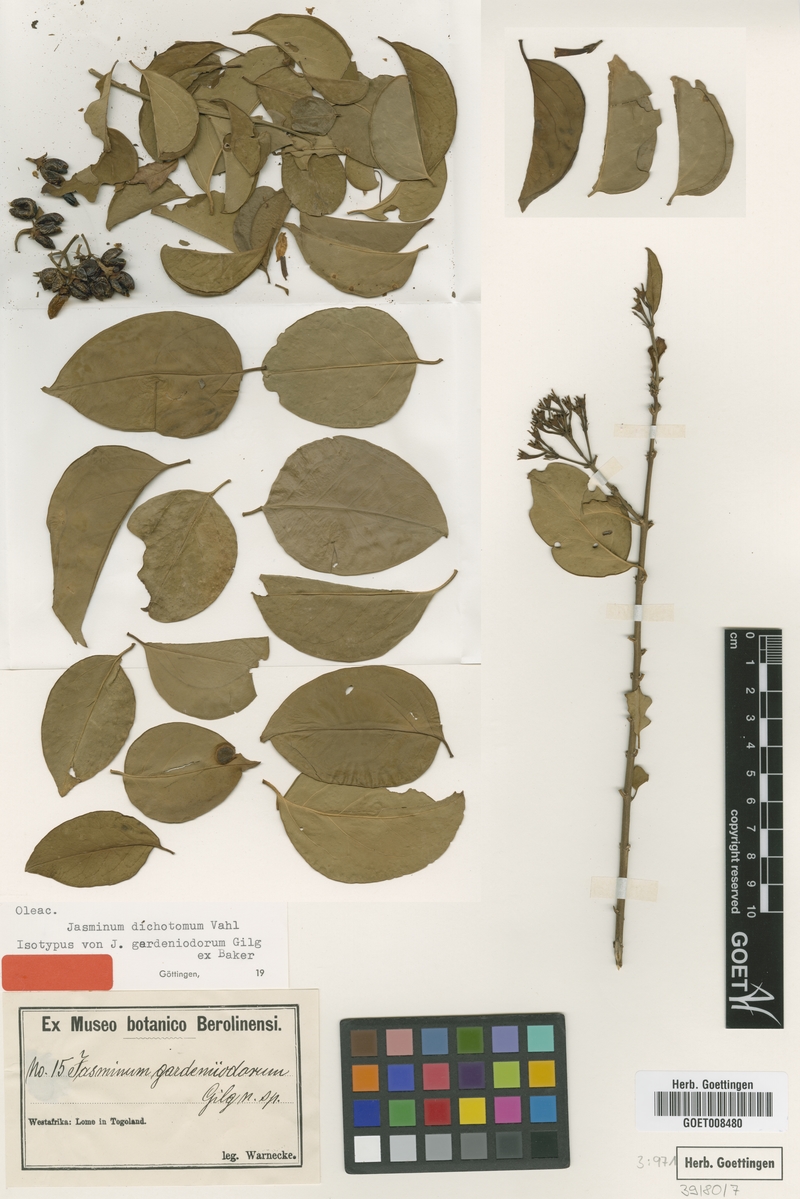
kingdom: Plantae
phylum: Tracheophyta
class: Magnoliopsida
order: Lamiales
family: Oleaceae
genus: Jasminum
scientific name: Jasminum dichotomum
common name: Gold coast jasmine
